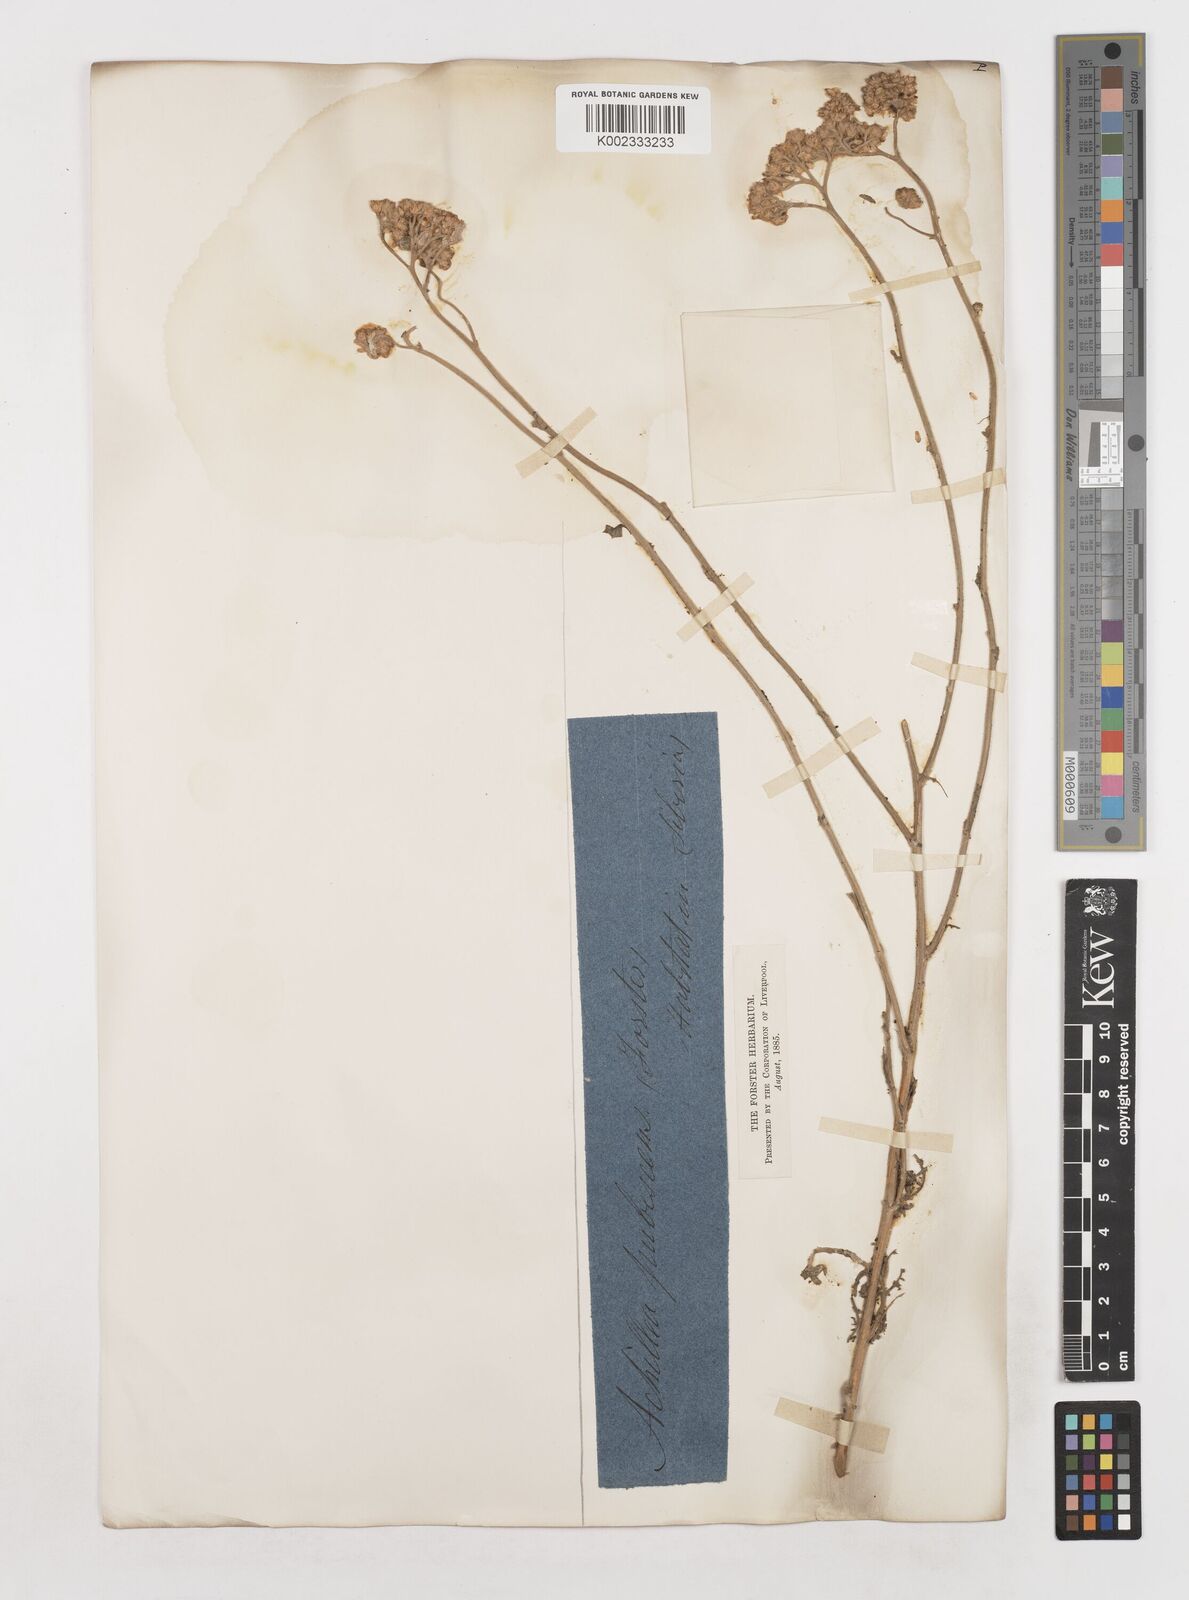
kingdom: Plantae
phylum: Tracheophyta
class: Magnoliopsida
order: Asterales
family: Asteraceae
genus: Achillea
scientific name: Achillea micrantha
